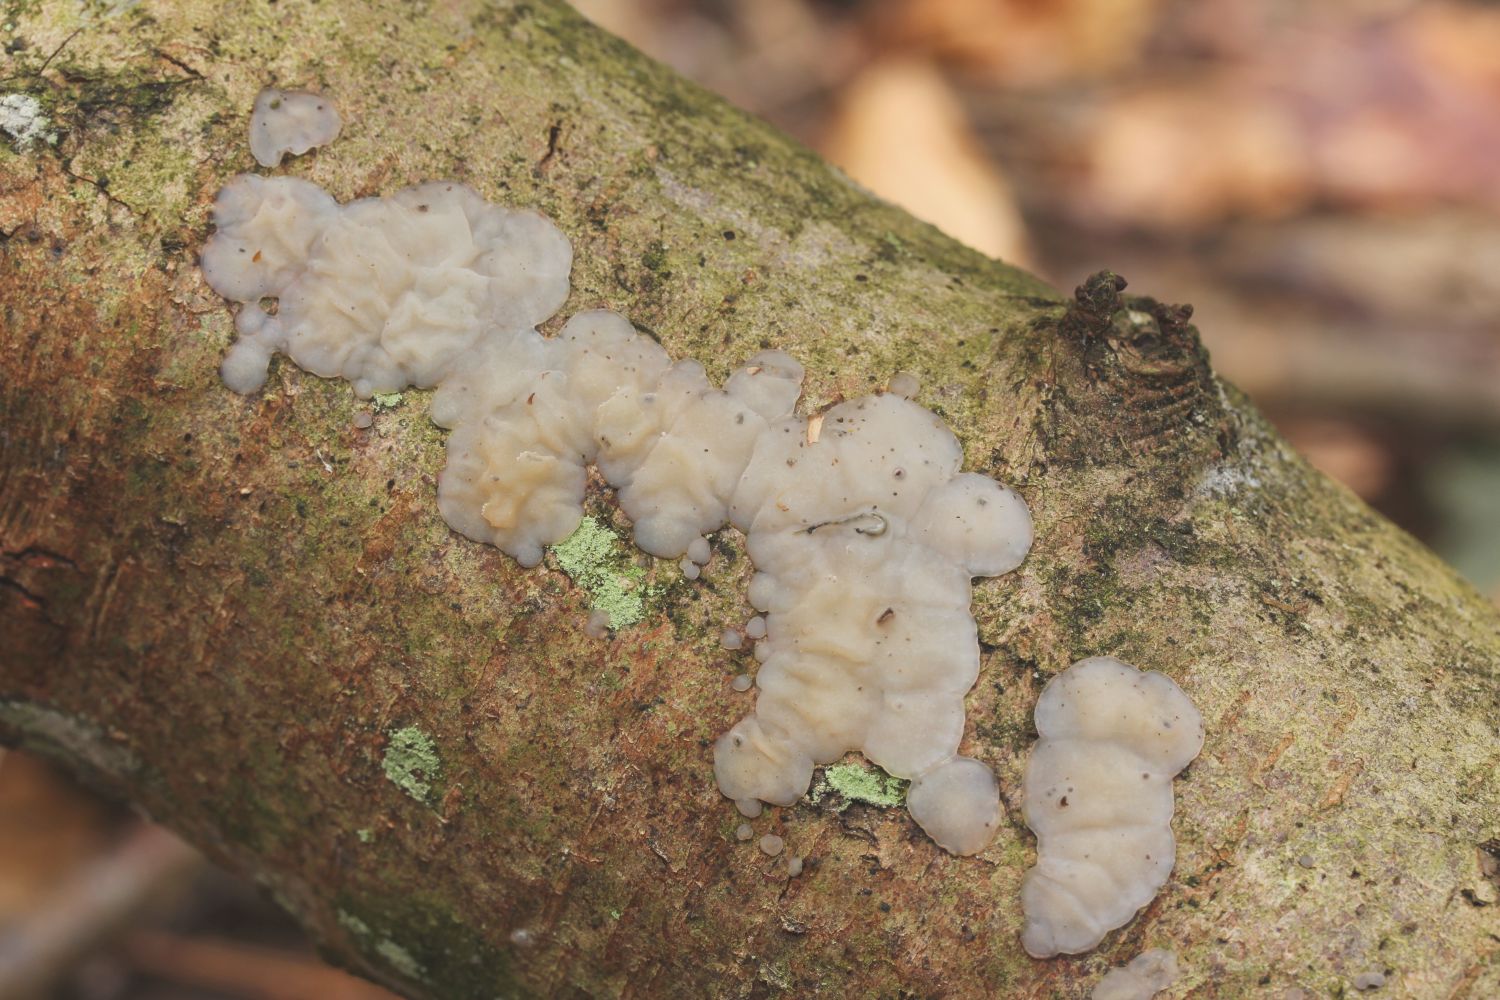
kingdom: Fungi
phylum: Basidiomycota
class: Agaricomycetes
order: Auriculariales
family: Auriculariaceae
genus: Exidia
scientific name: Exidia thuretiana
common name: hvidlig bævretop
